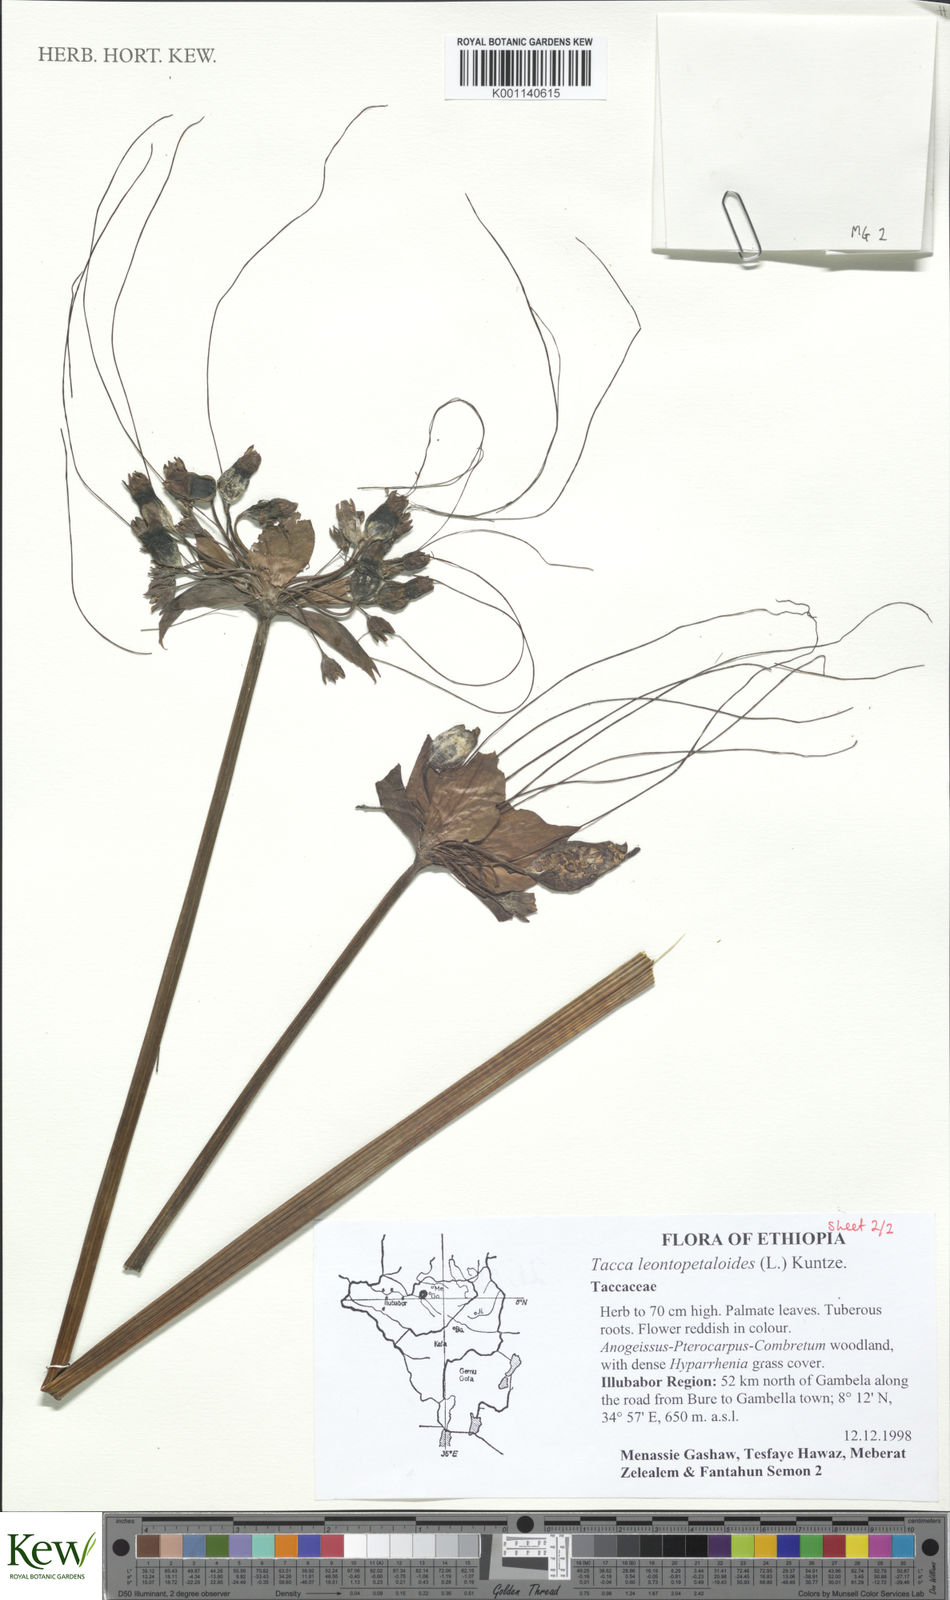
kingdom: Plantae
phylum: Tracheophyta
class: Liliopsida
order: Dioscoreales
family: Dioscoreaceae
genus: Tacca
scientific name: Tacca leontopetaloides
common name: Arrowroot
